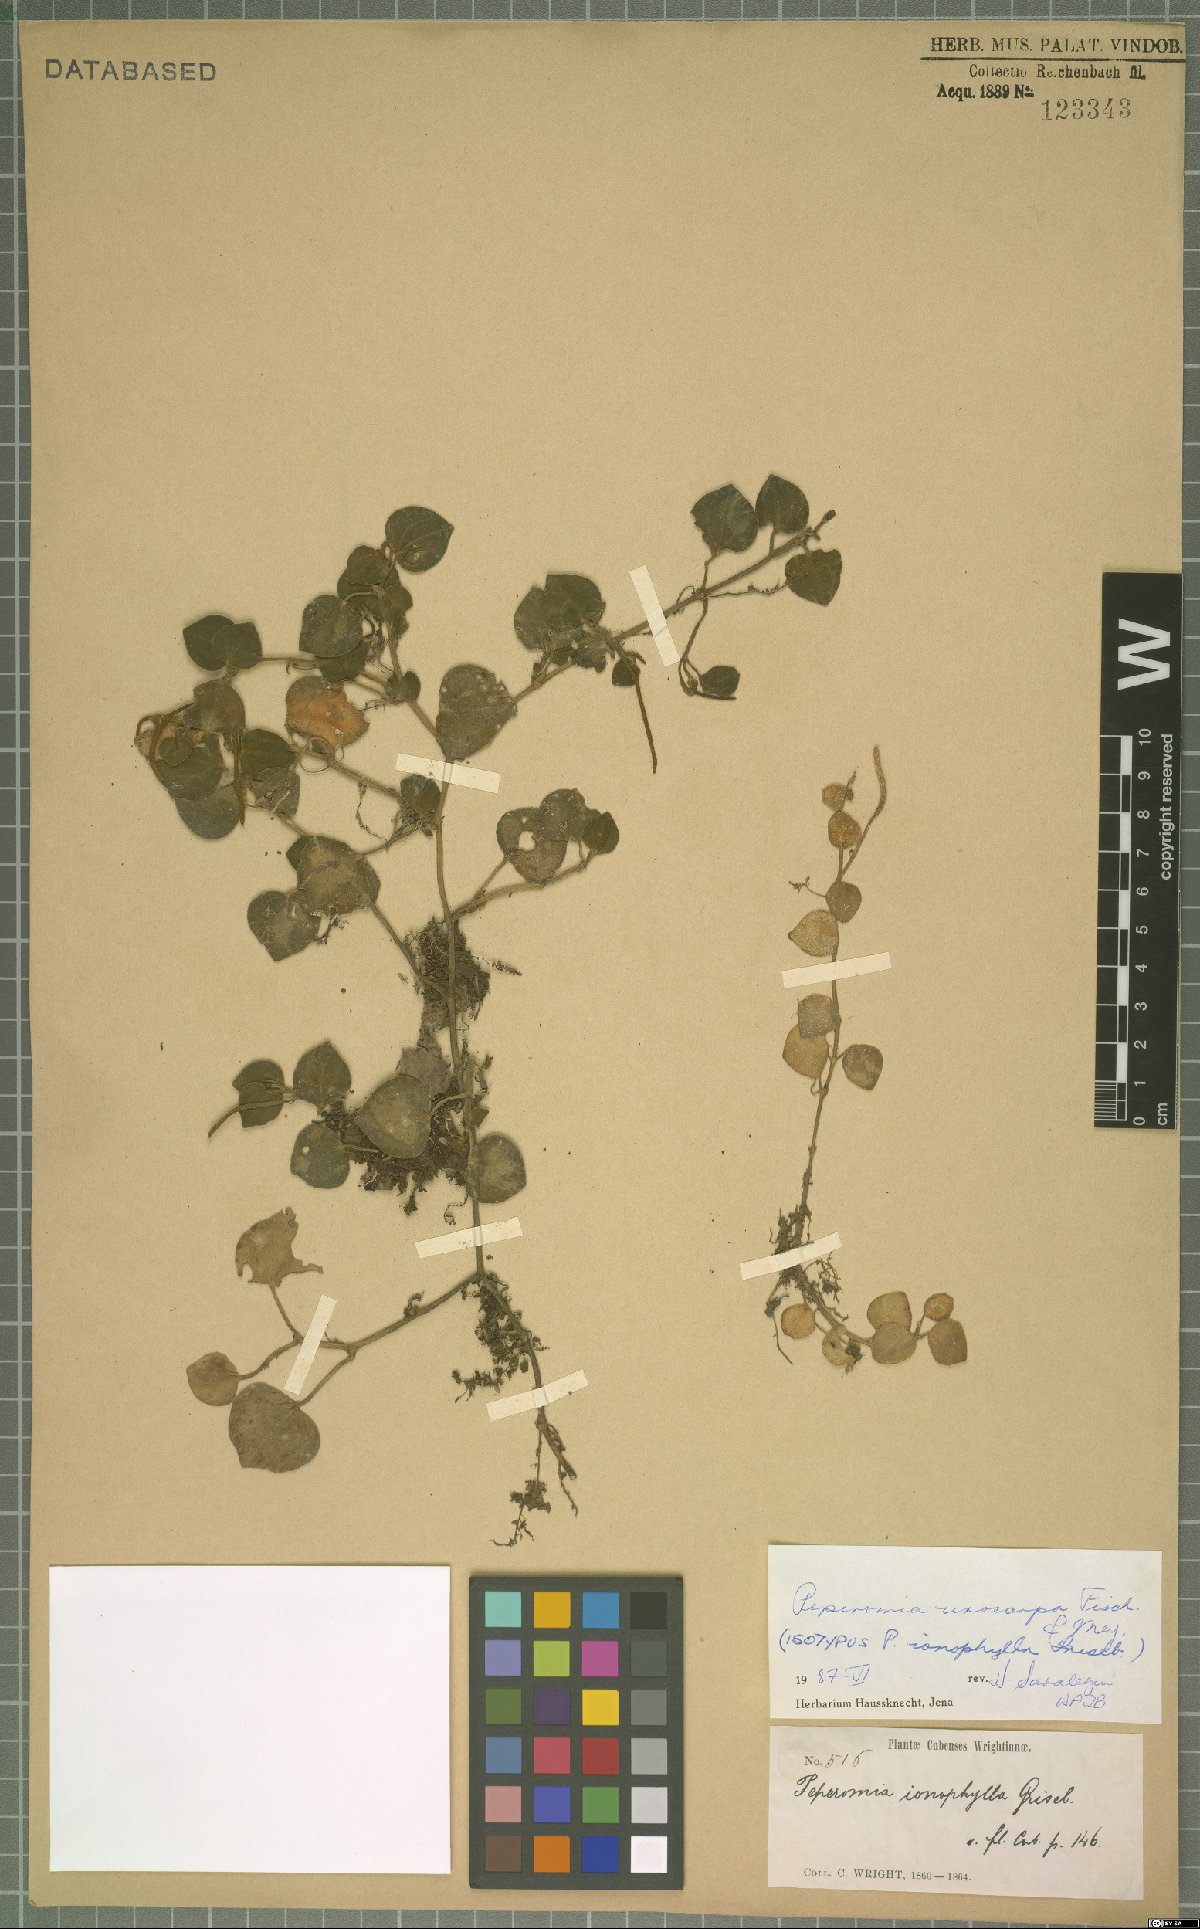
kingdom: Plantae
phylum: Tracheophyta
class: Magnoliopsida
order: Piperales
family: Piperaceae
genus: Peperomia
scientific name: Peperomia urocarpa
